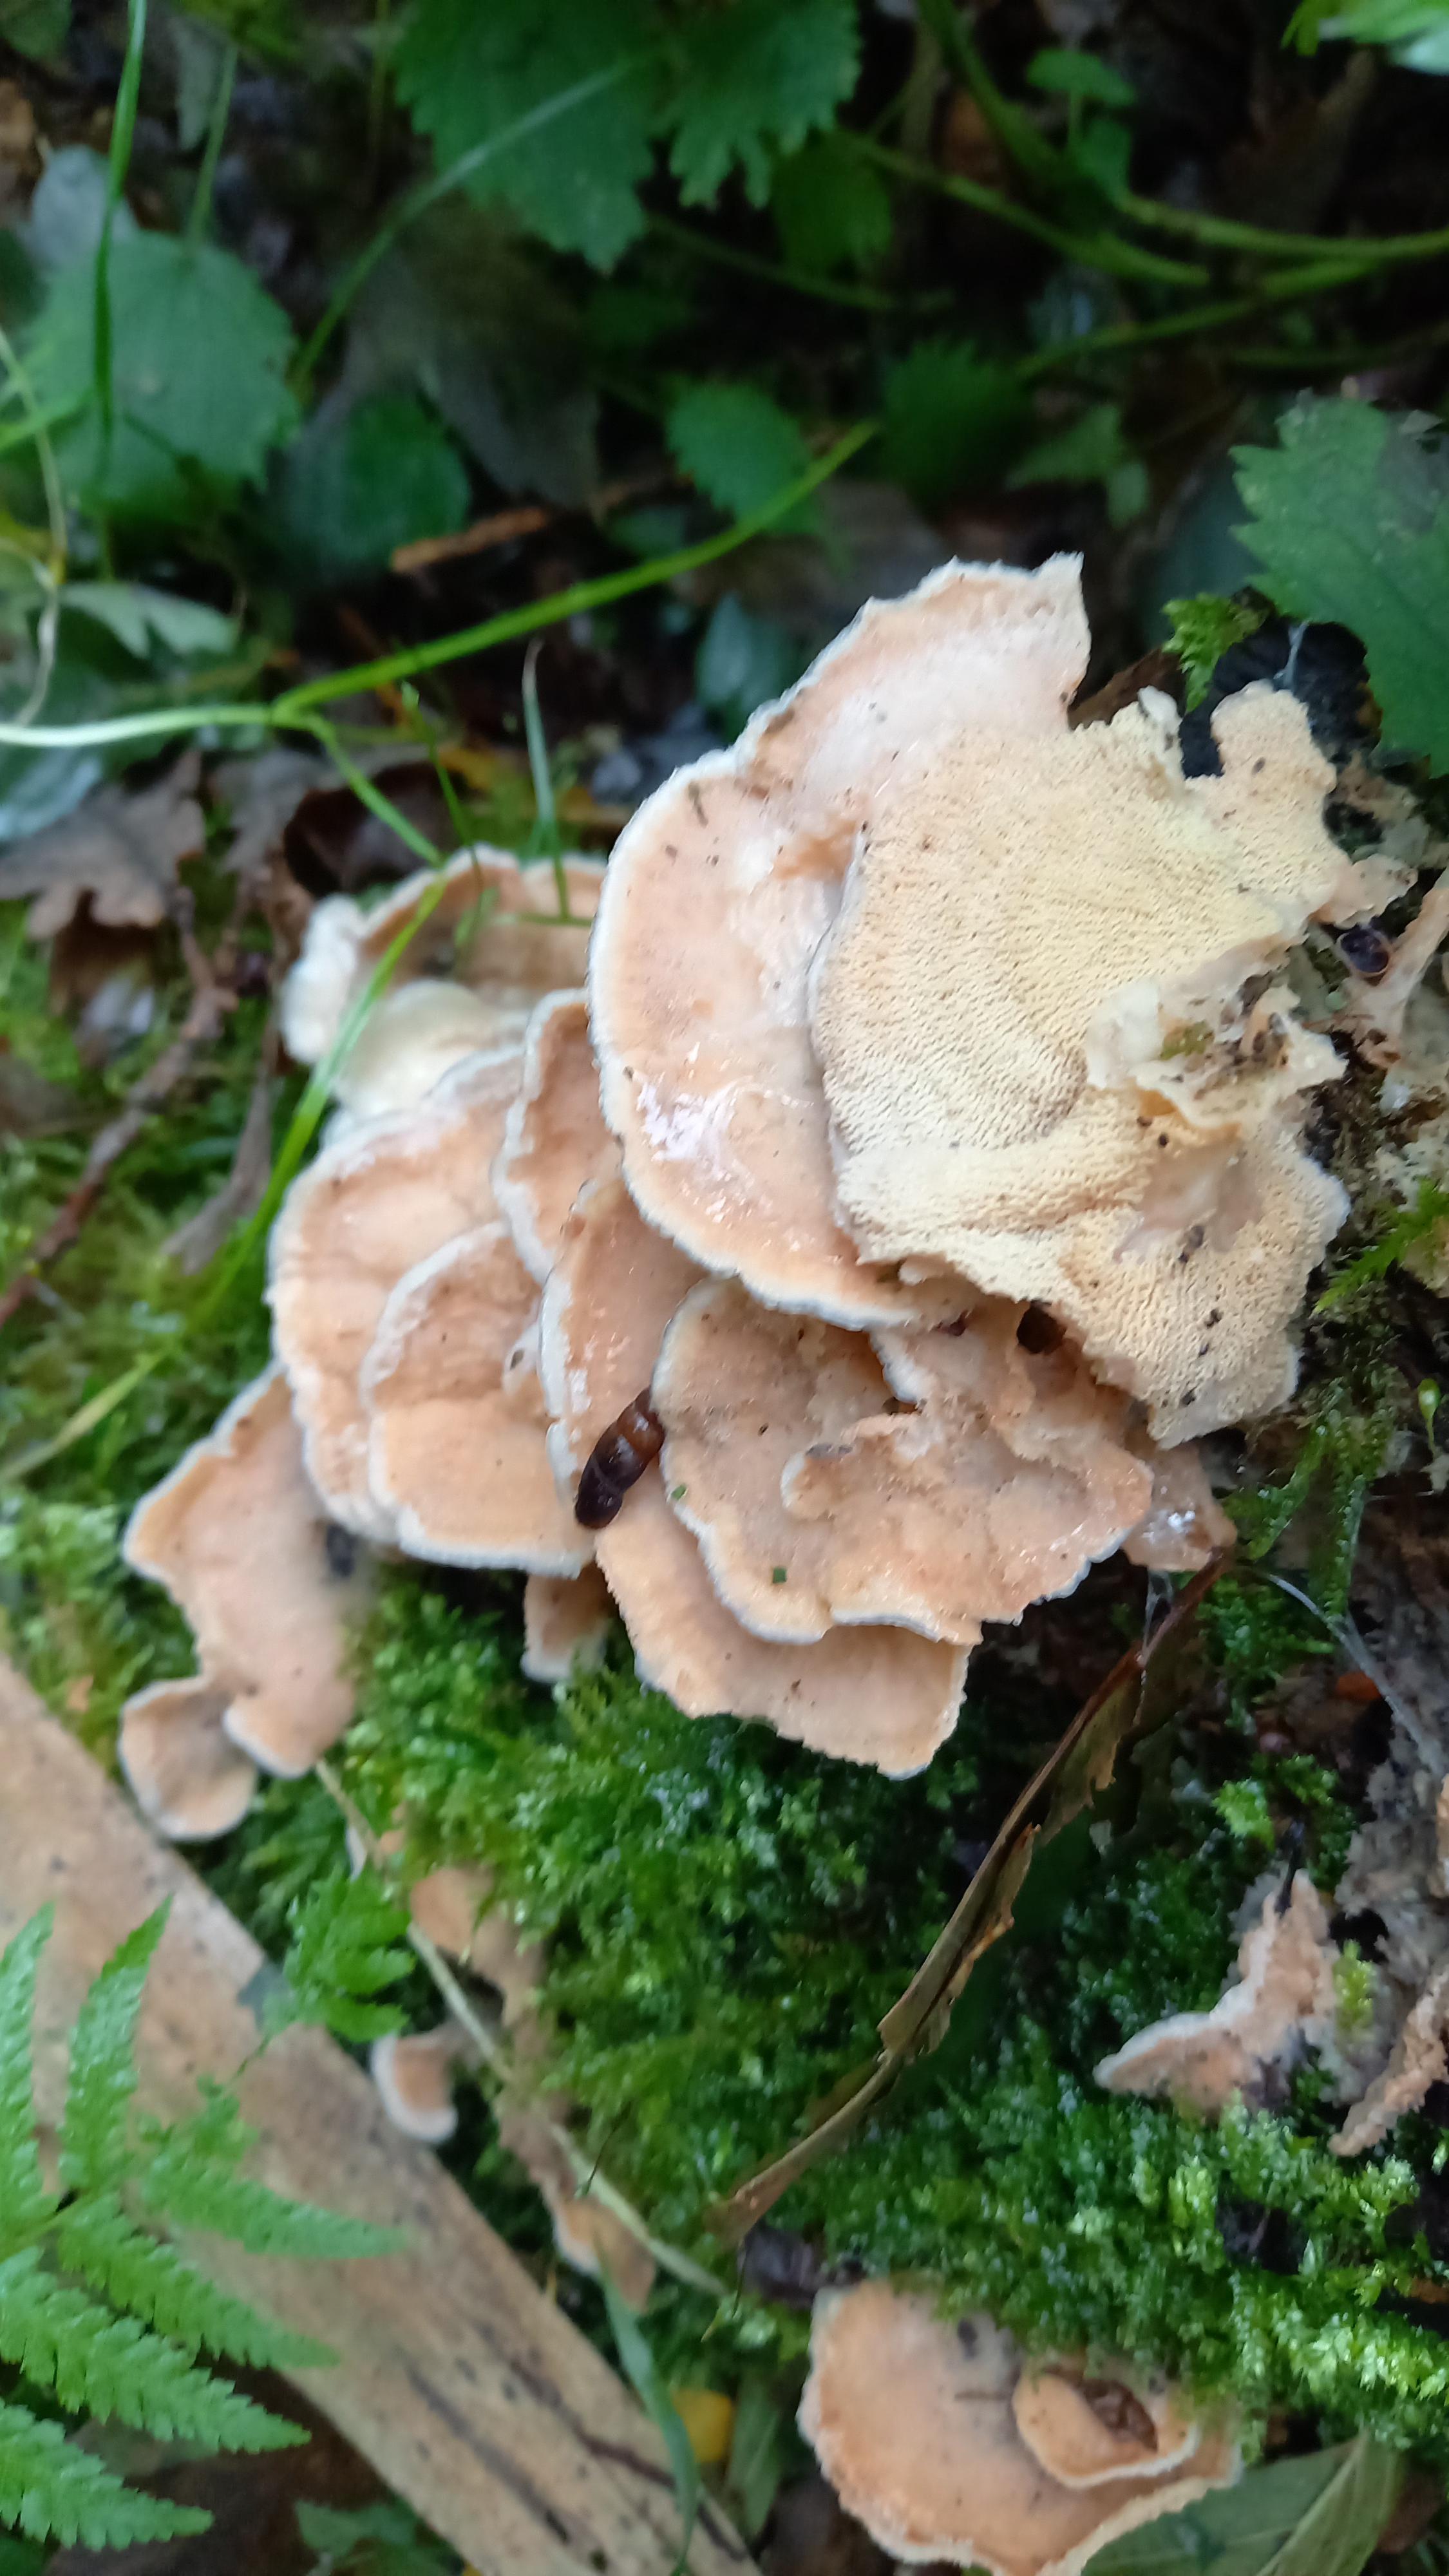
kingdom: Fungi
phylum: Basidiomycota
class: Agaricomycetes
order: Polyporales
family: Meruliaceae
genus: Phlebia
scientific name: Phlebia tremellosa
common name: bævrende åresvamp
